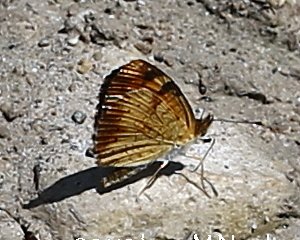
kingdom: Animalia
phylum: Arthropoda
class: Insecta
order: Lepidoptera
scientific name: Lepidoptera
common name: Butterflies
